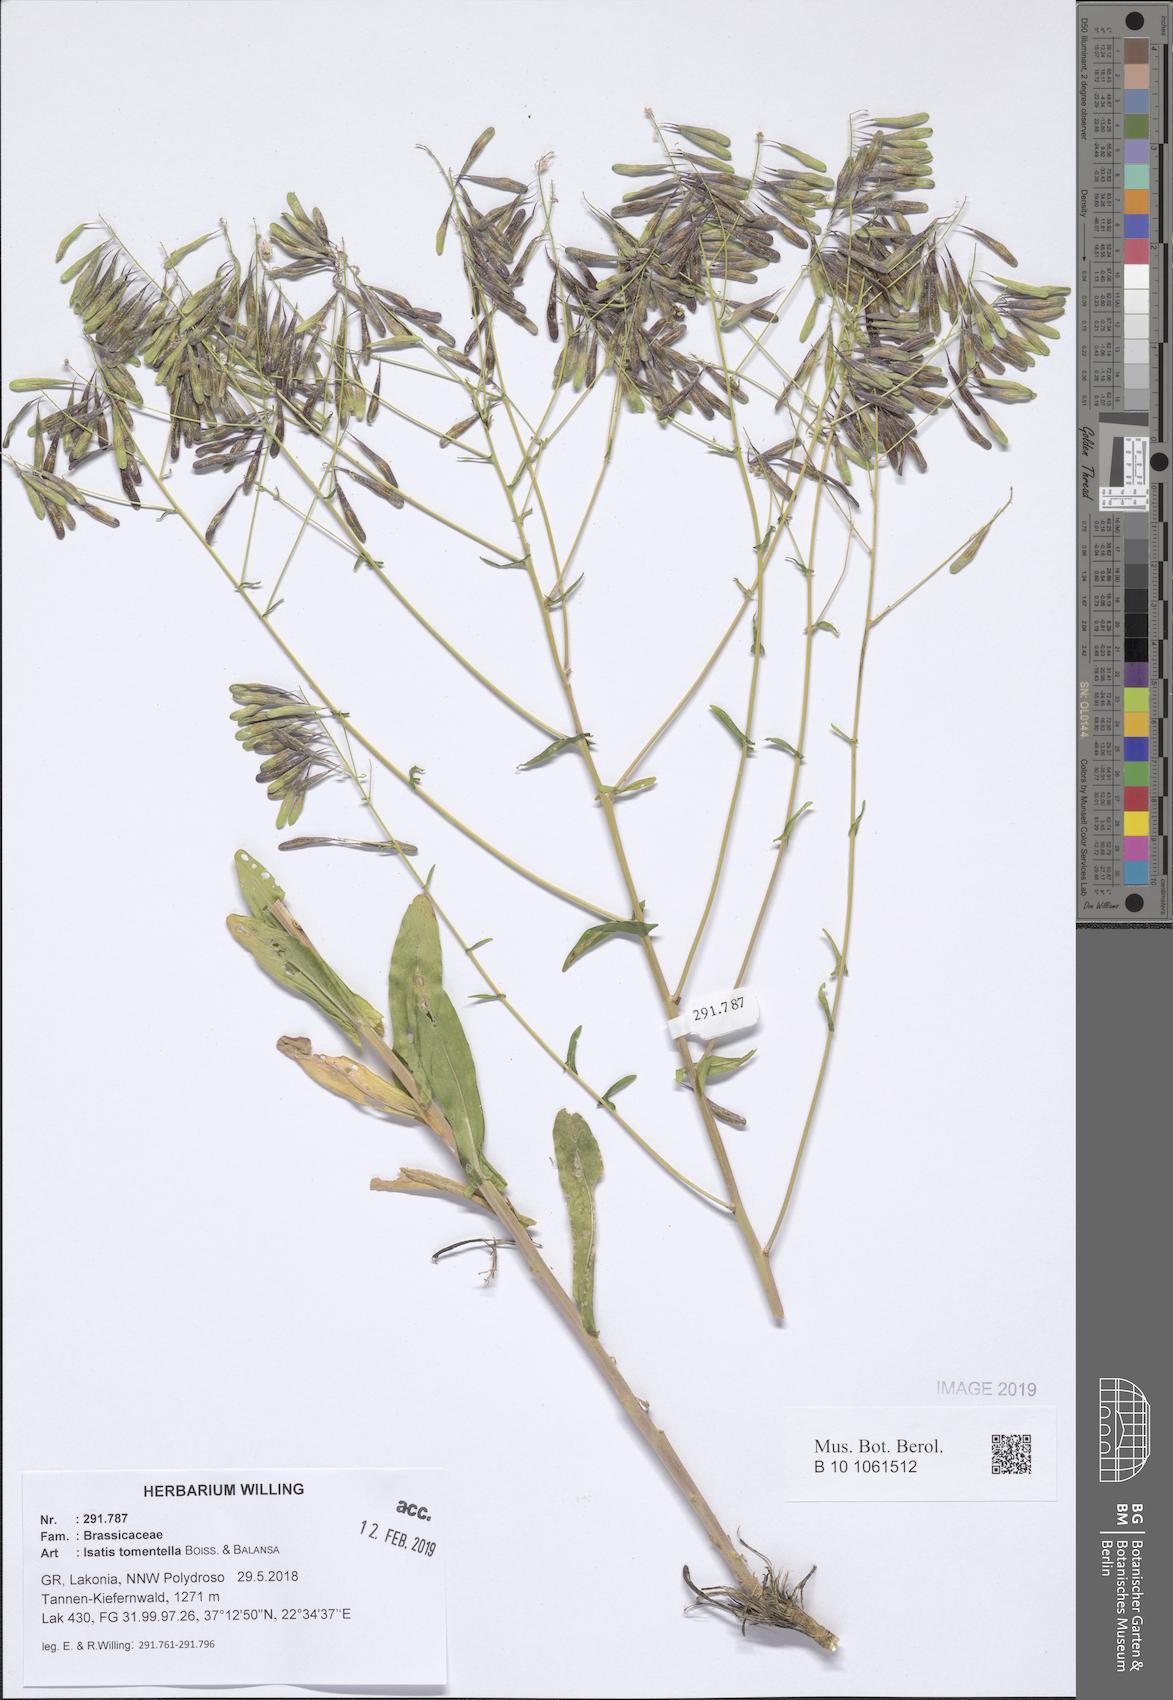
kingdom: Plantae
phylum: Tracheophyta
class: Magnoliopsida
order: Brassicales
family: Brassicaceae
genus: Isatis
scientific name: Isatis tomentella
